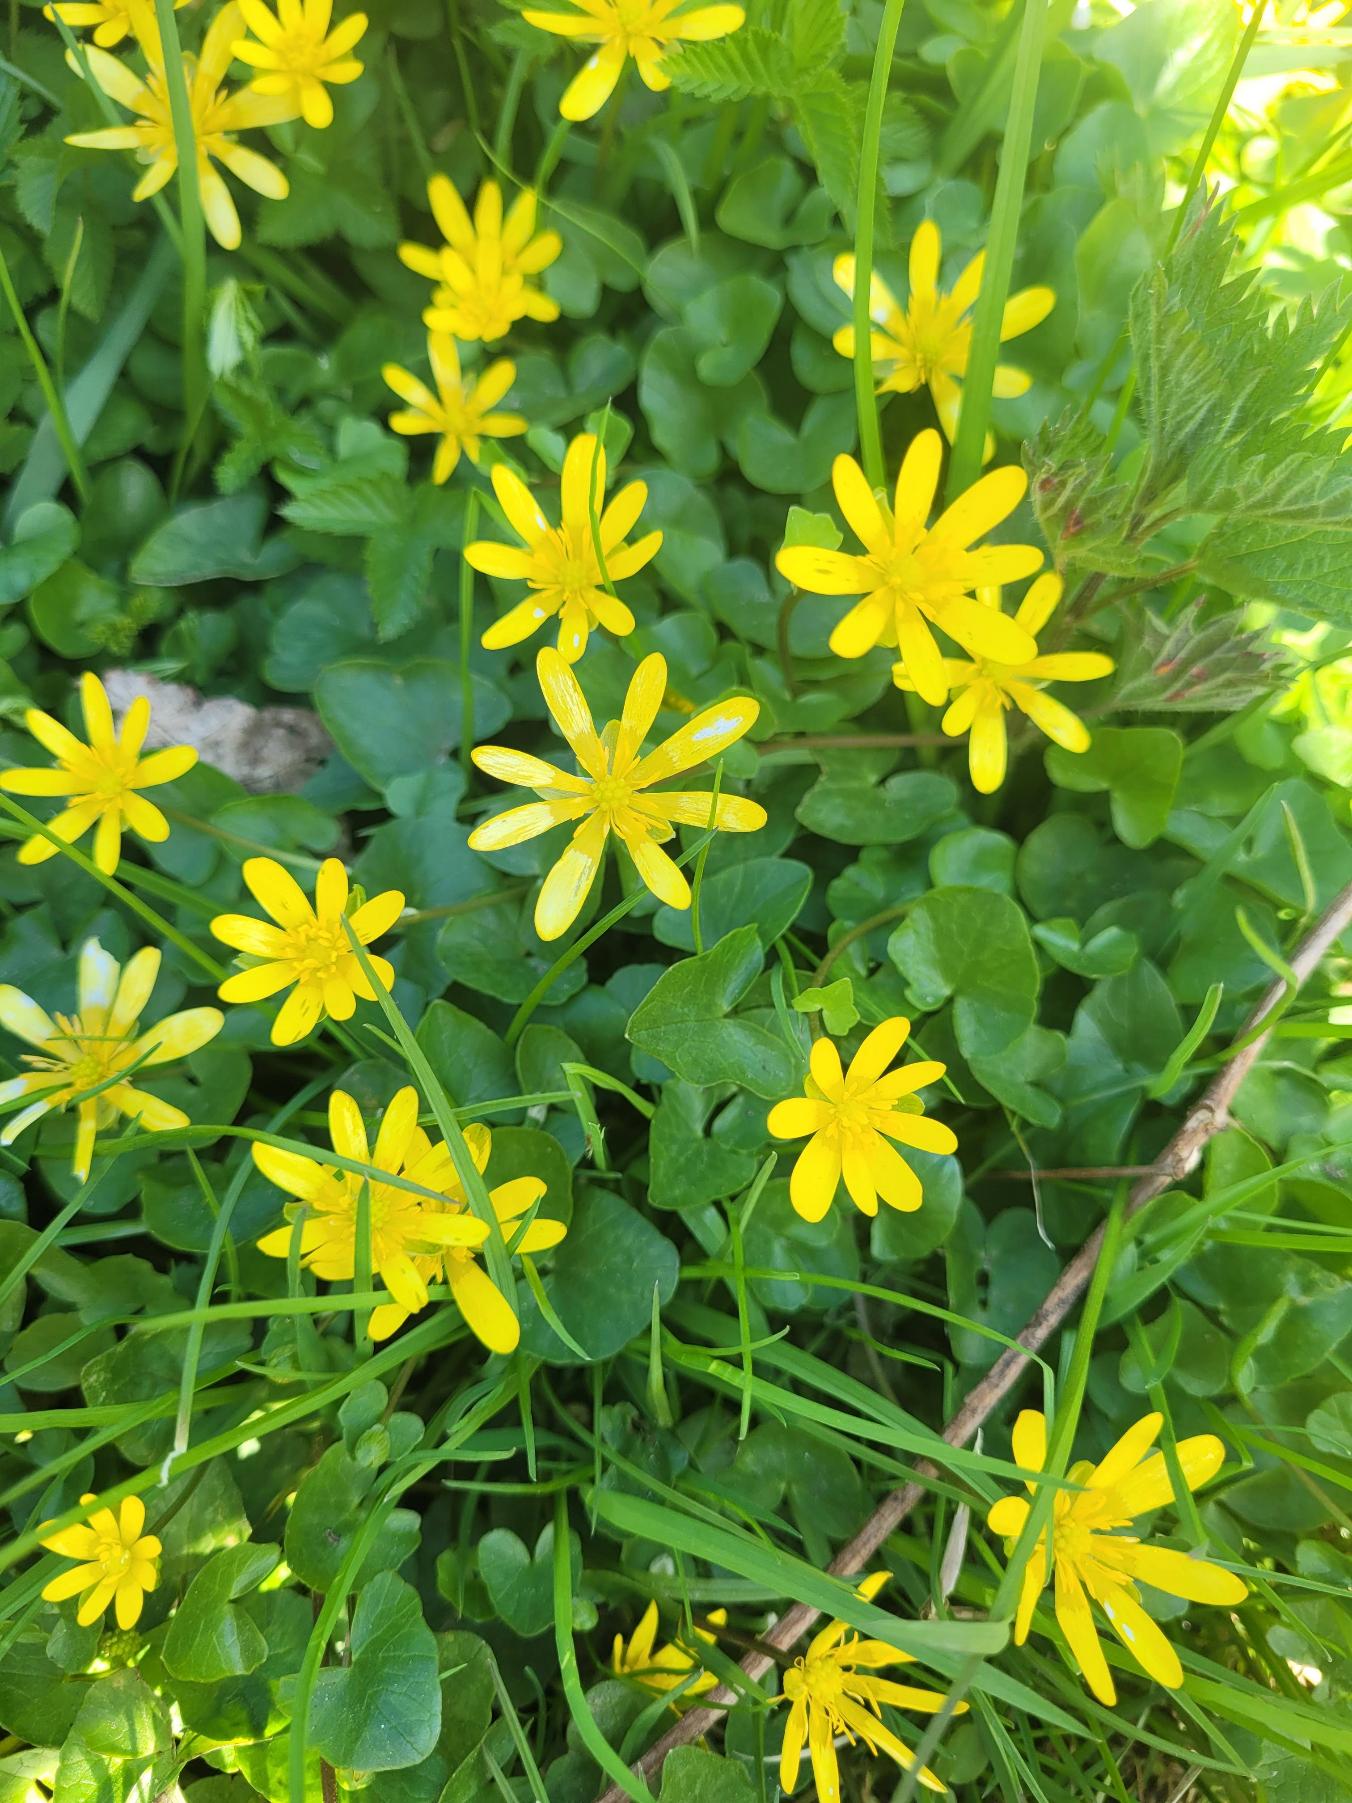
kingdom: Plantae
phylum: Tracheophyta
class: Magnoliopsida
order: Ranunculales
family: Ranunculaceae
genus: Ficaria
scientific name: Ficaria verna
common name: Vorterod
